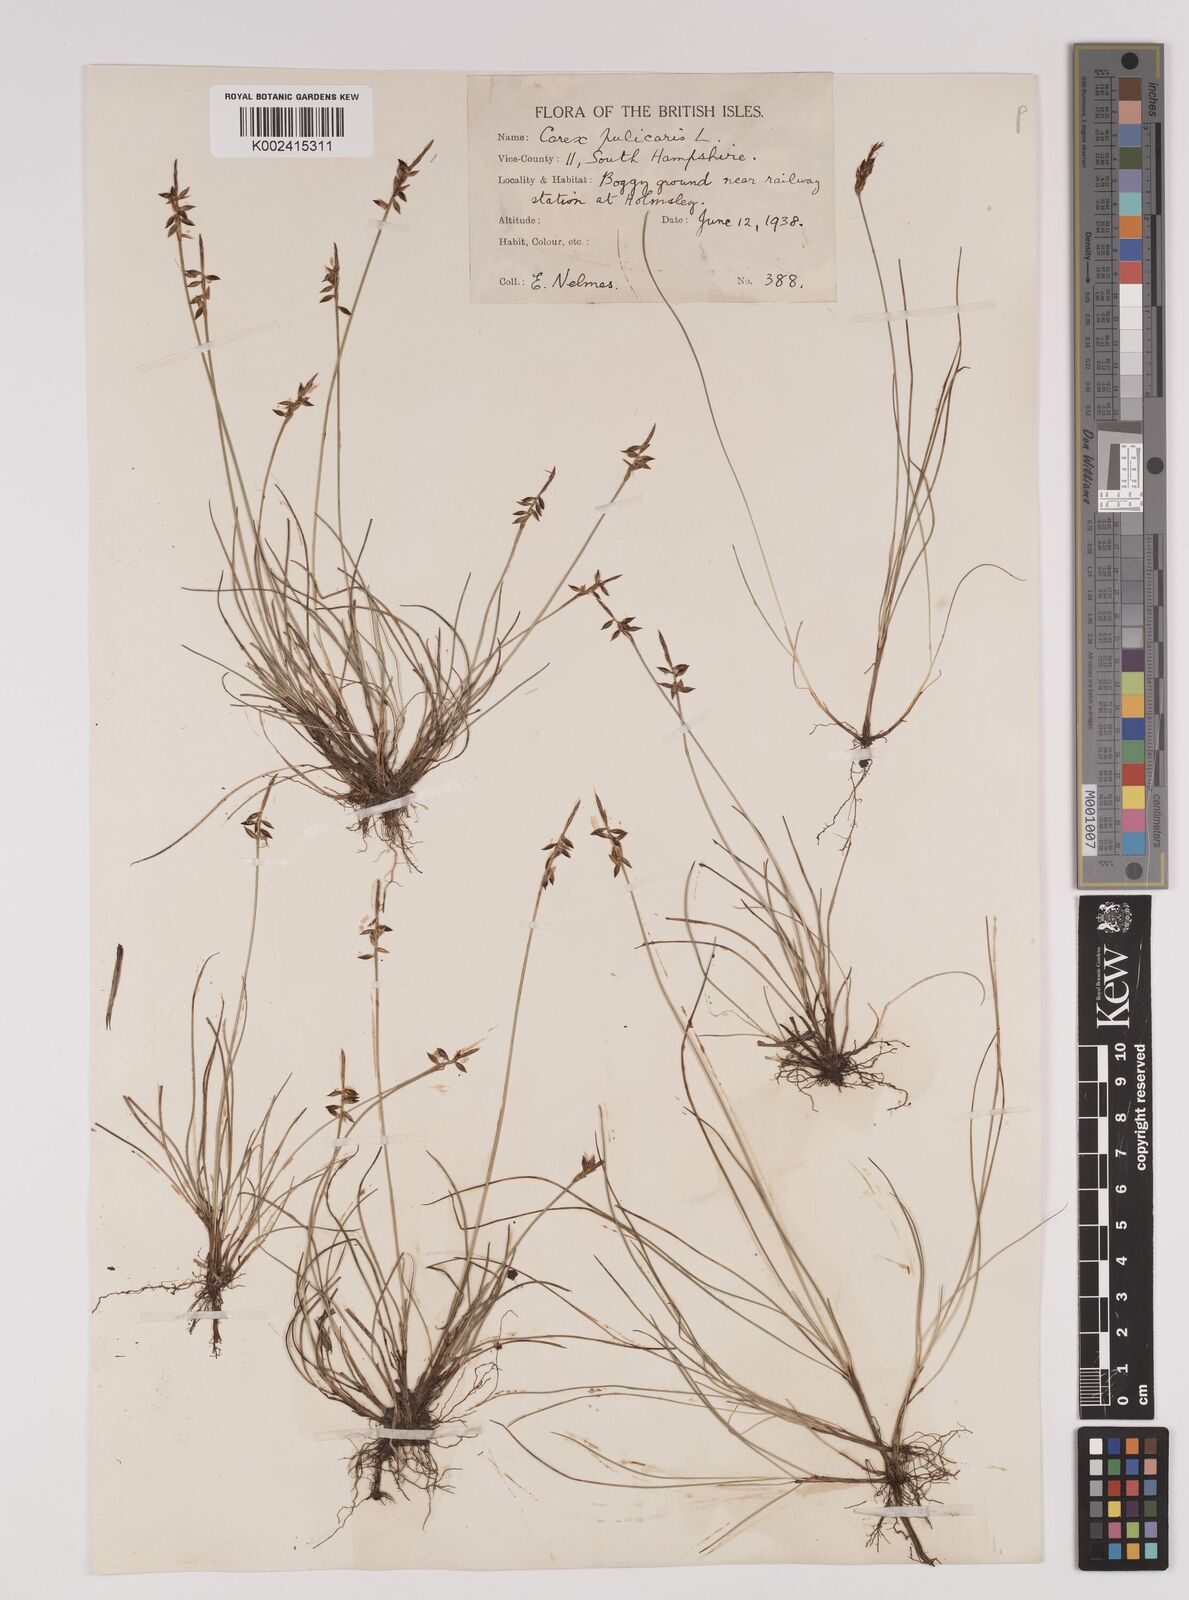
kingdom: Plantae
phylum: Tracheophyta
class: Liliopsida
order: Poales
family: Cyperaceae
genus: Carex
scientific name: Carex pulicaris
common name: Flea sedge
